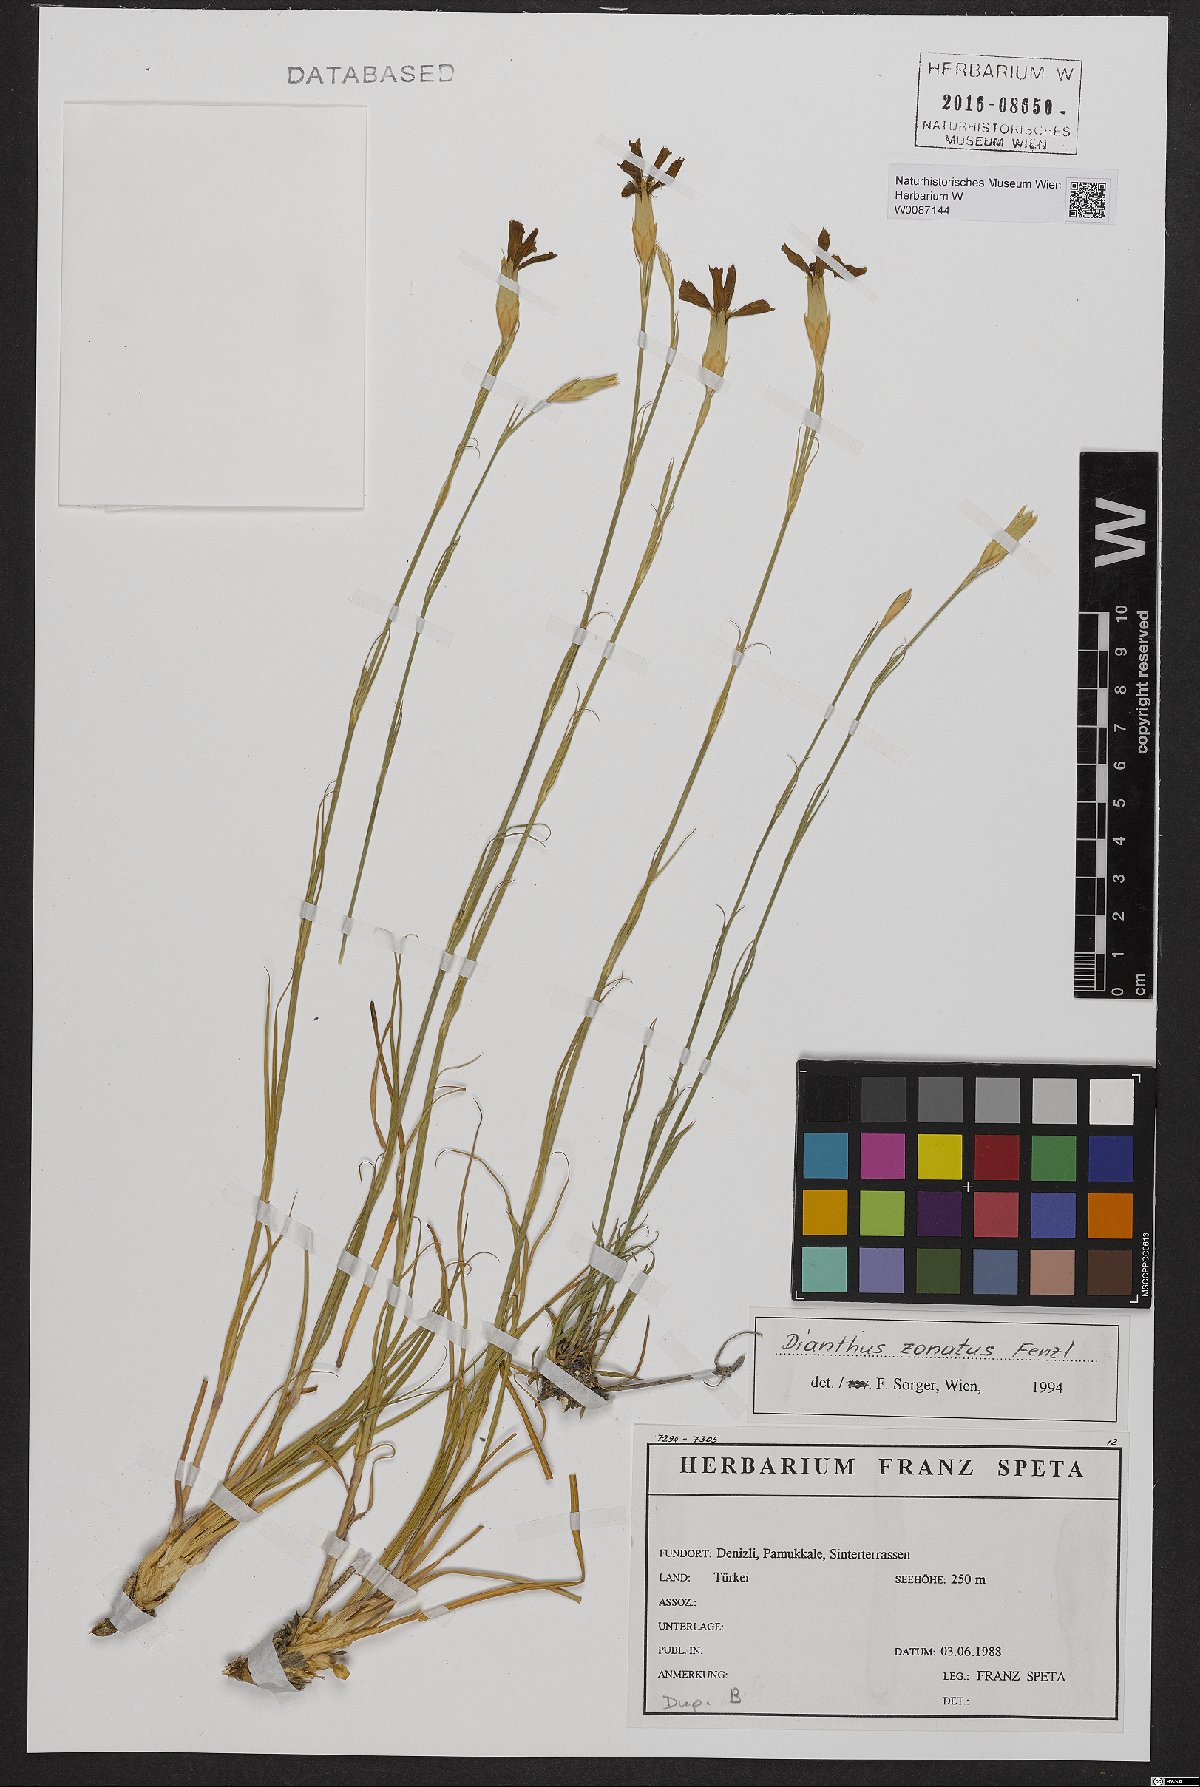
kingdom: Plantae
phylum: Tracheophyta
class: Magnoliopsida
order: Caryophyllales
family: Caryophyllaceae
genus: Dianthus
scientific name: Dianthus zonatus
